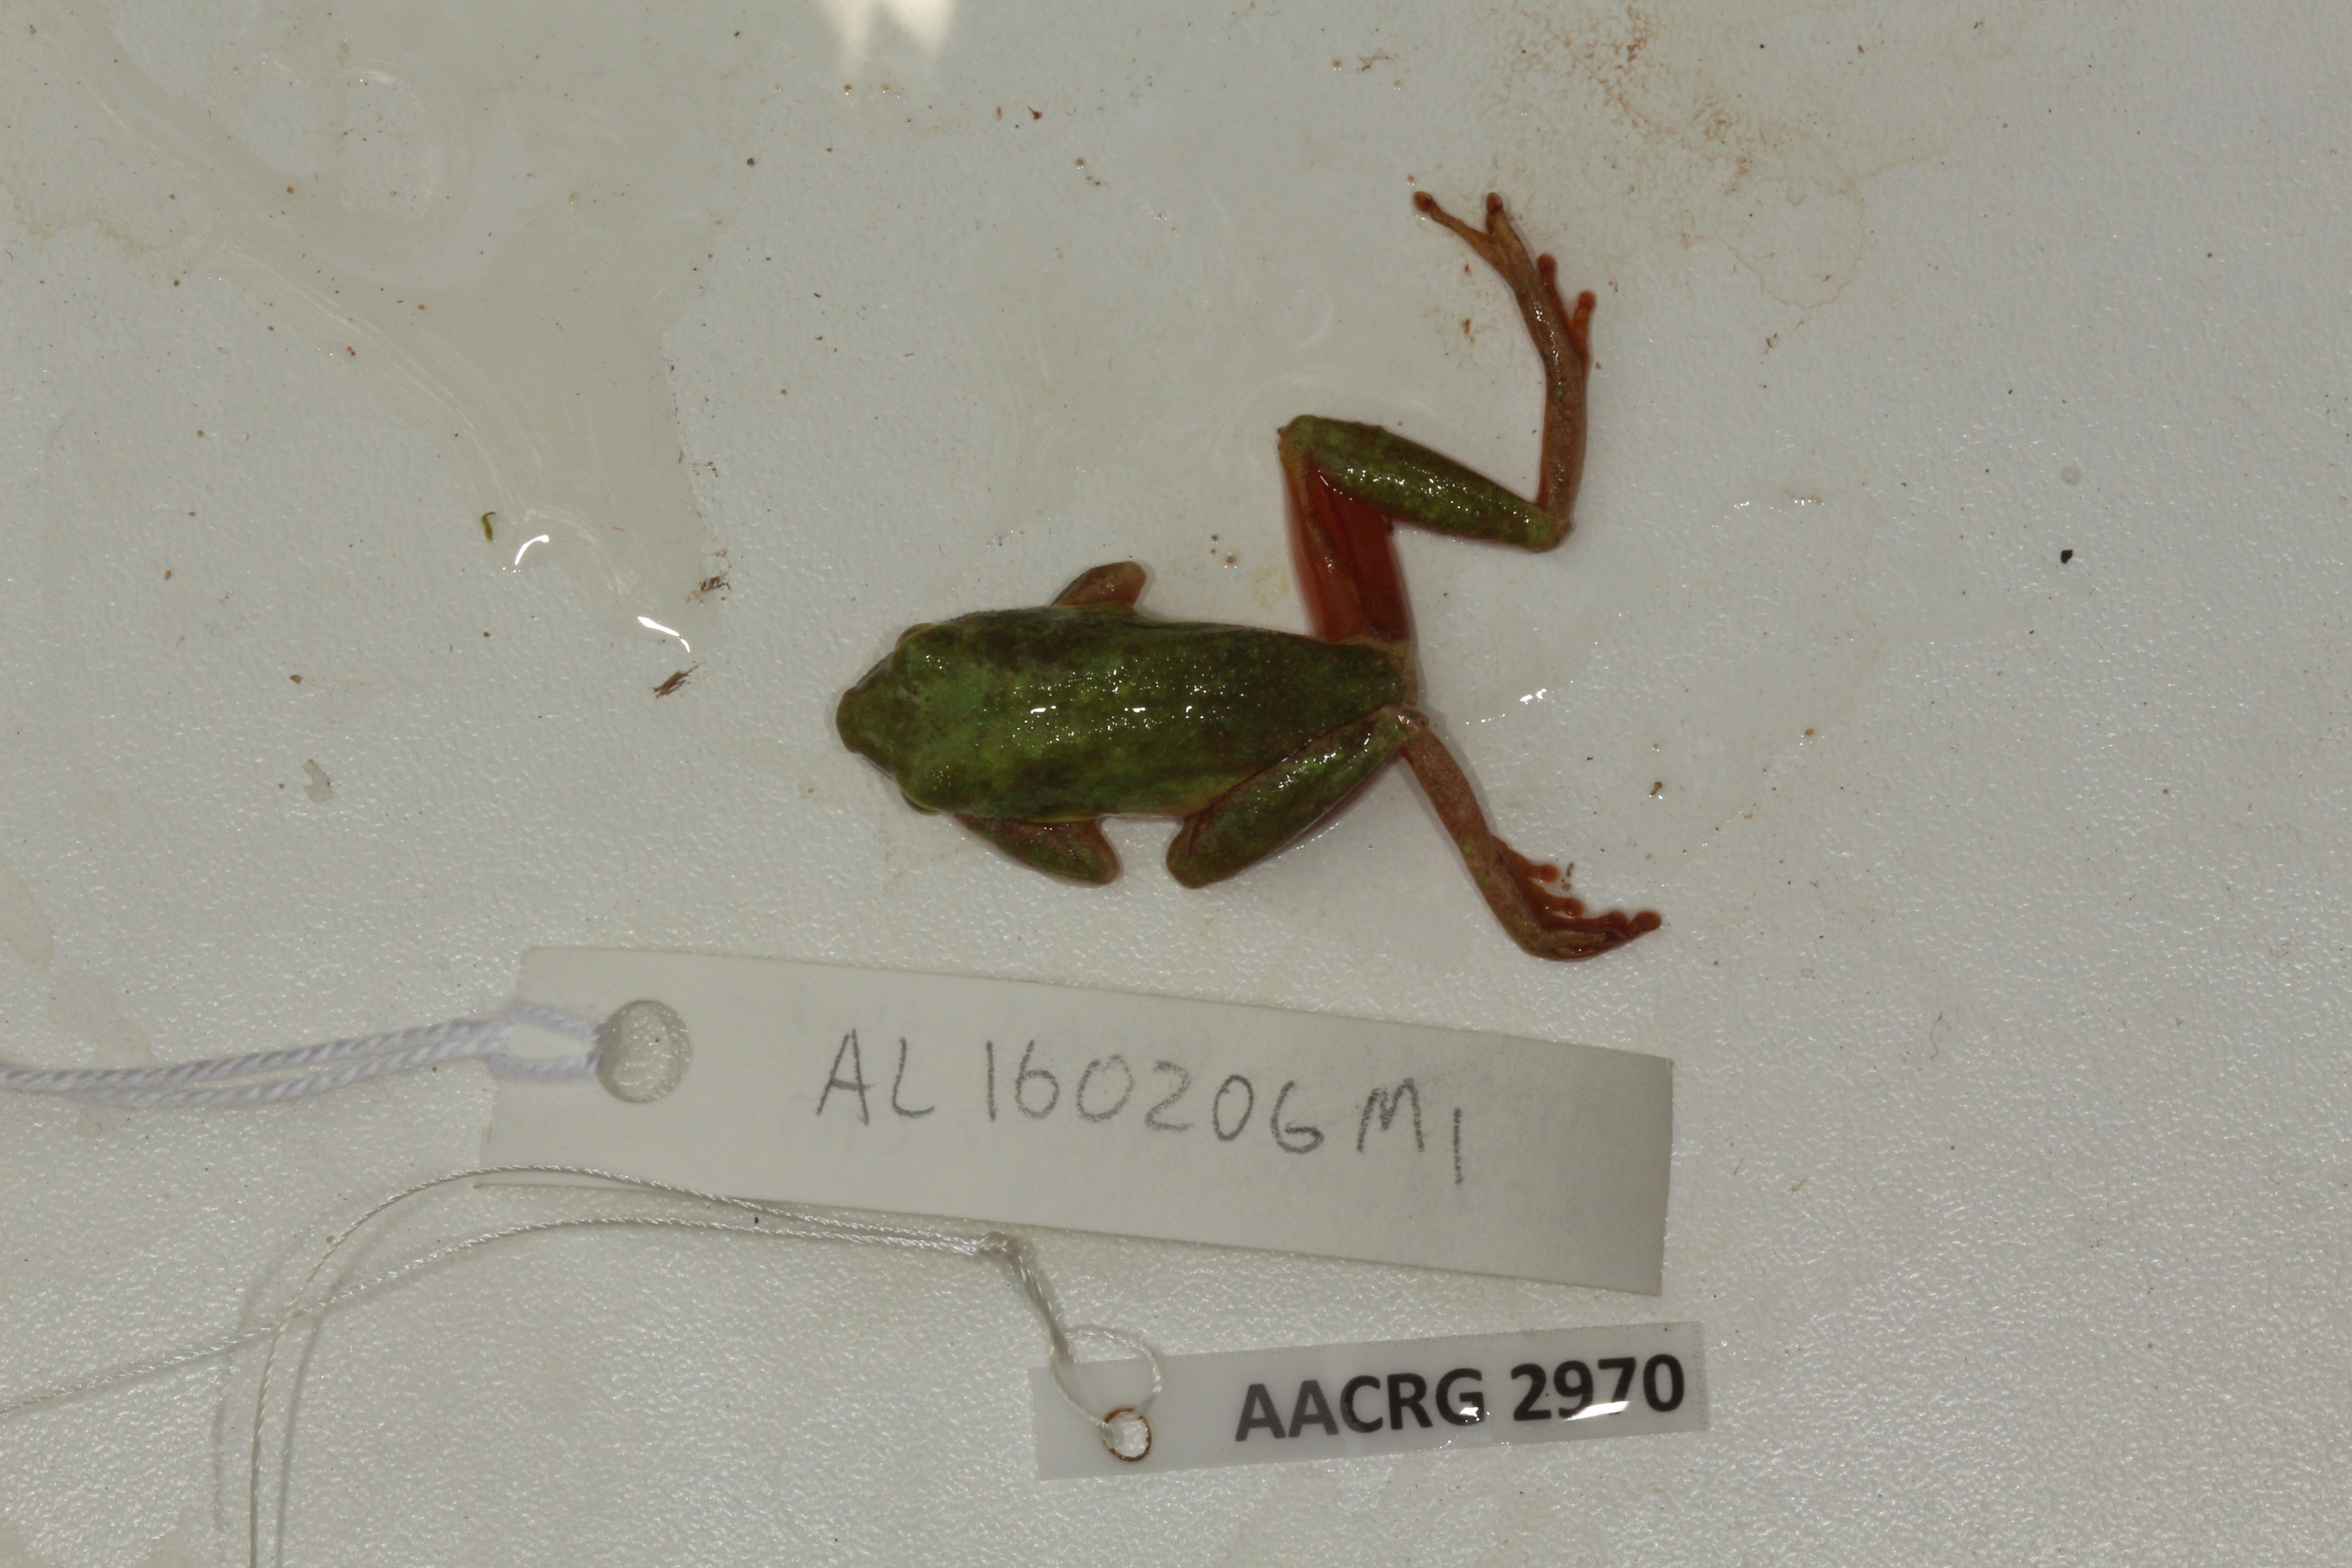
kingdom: Animalia
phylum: Chordata
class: Amphibia
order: Anura
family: Hyperoliidae
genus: Hyperolius
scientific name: Hyperolius tuberilinguis
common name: Tinker reed frog
